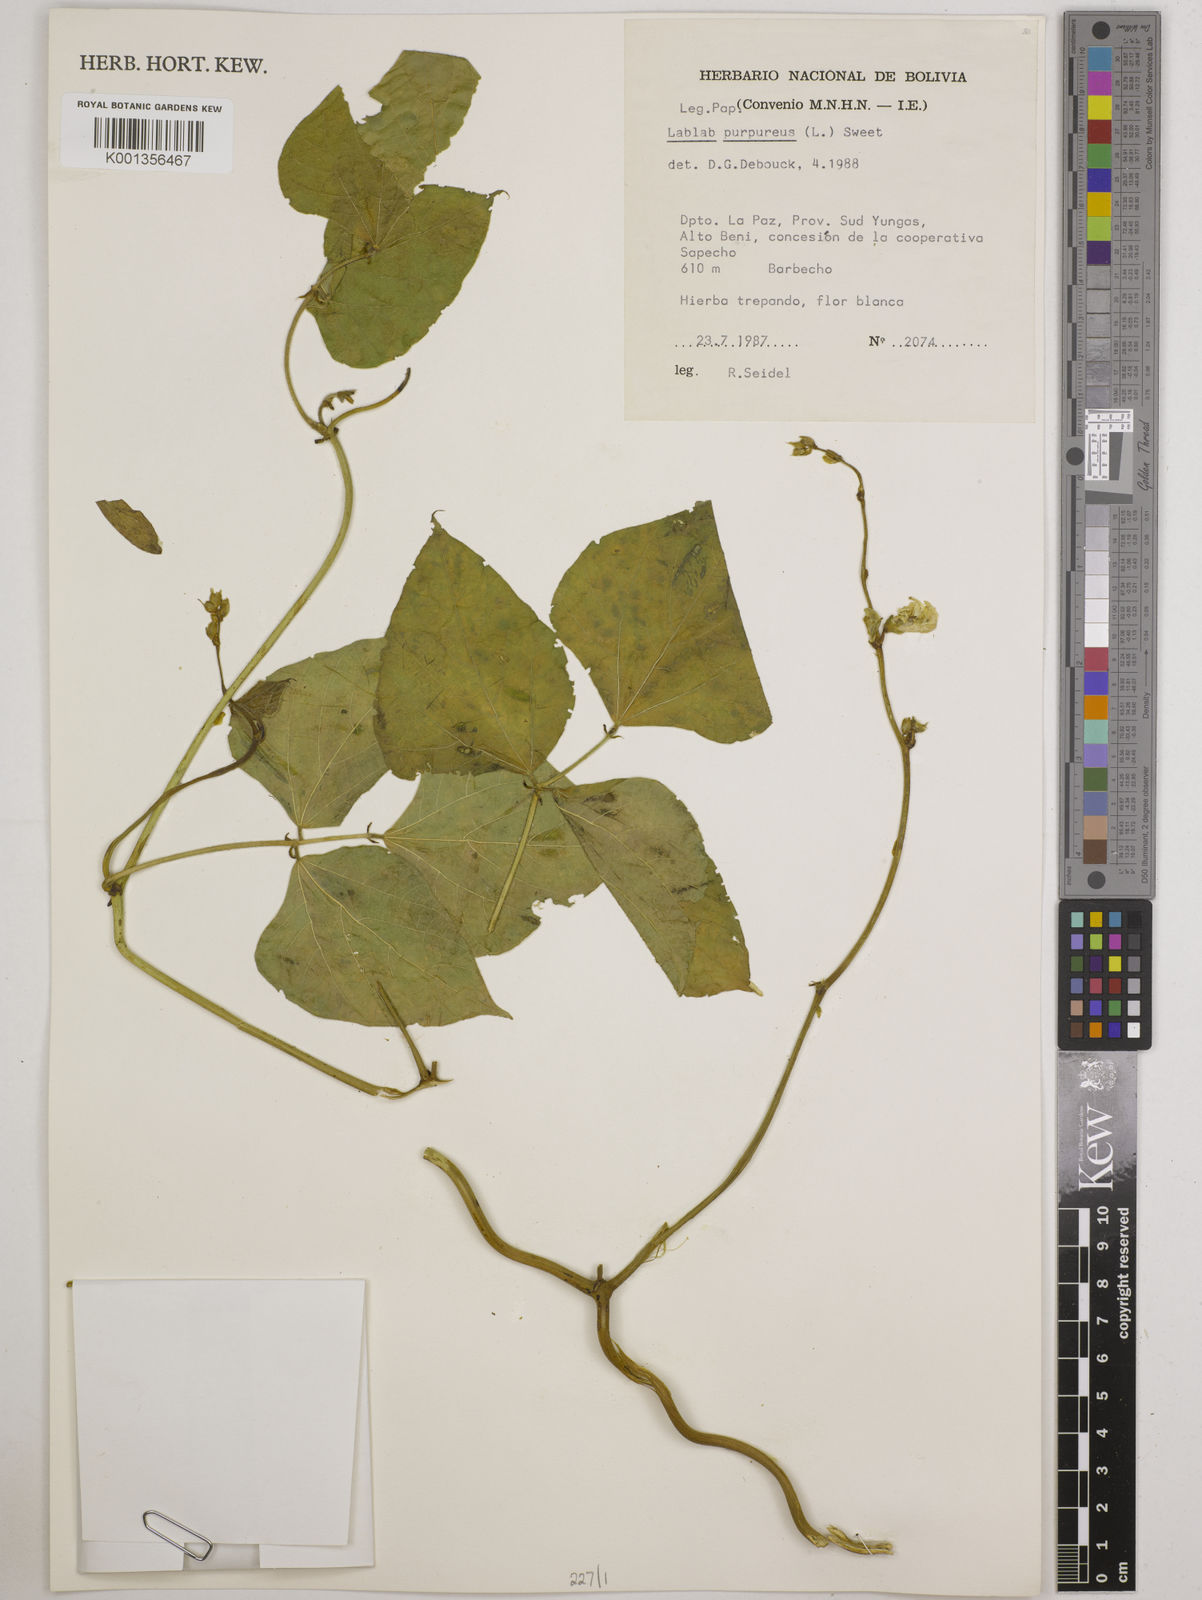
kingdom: Plantae
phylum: Tracheophyta
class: Magnoliopsida
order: Fabales
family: Fabaceae
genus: Lablab
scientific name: Lablab purpureus
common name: Lablab-bean
